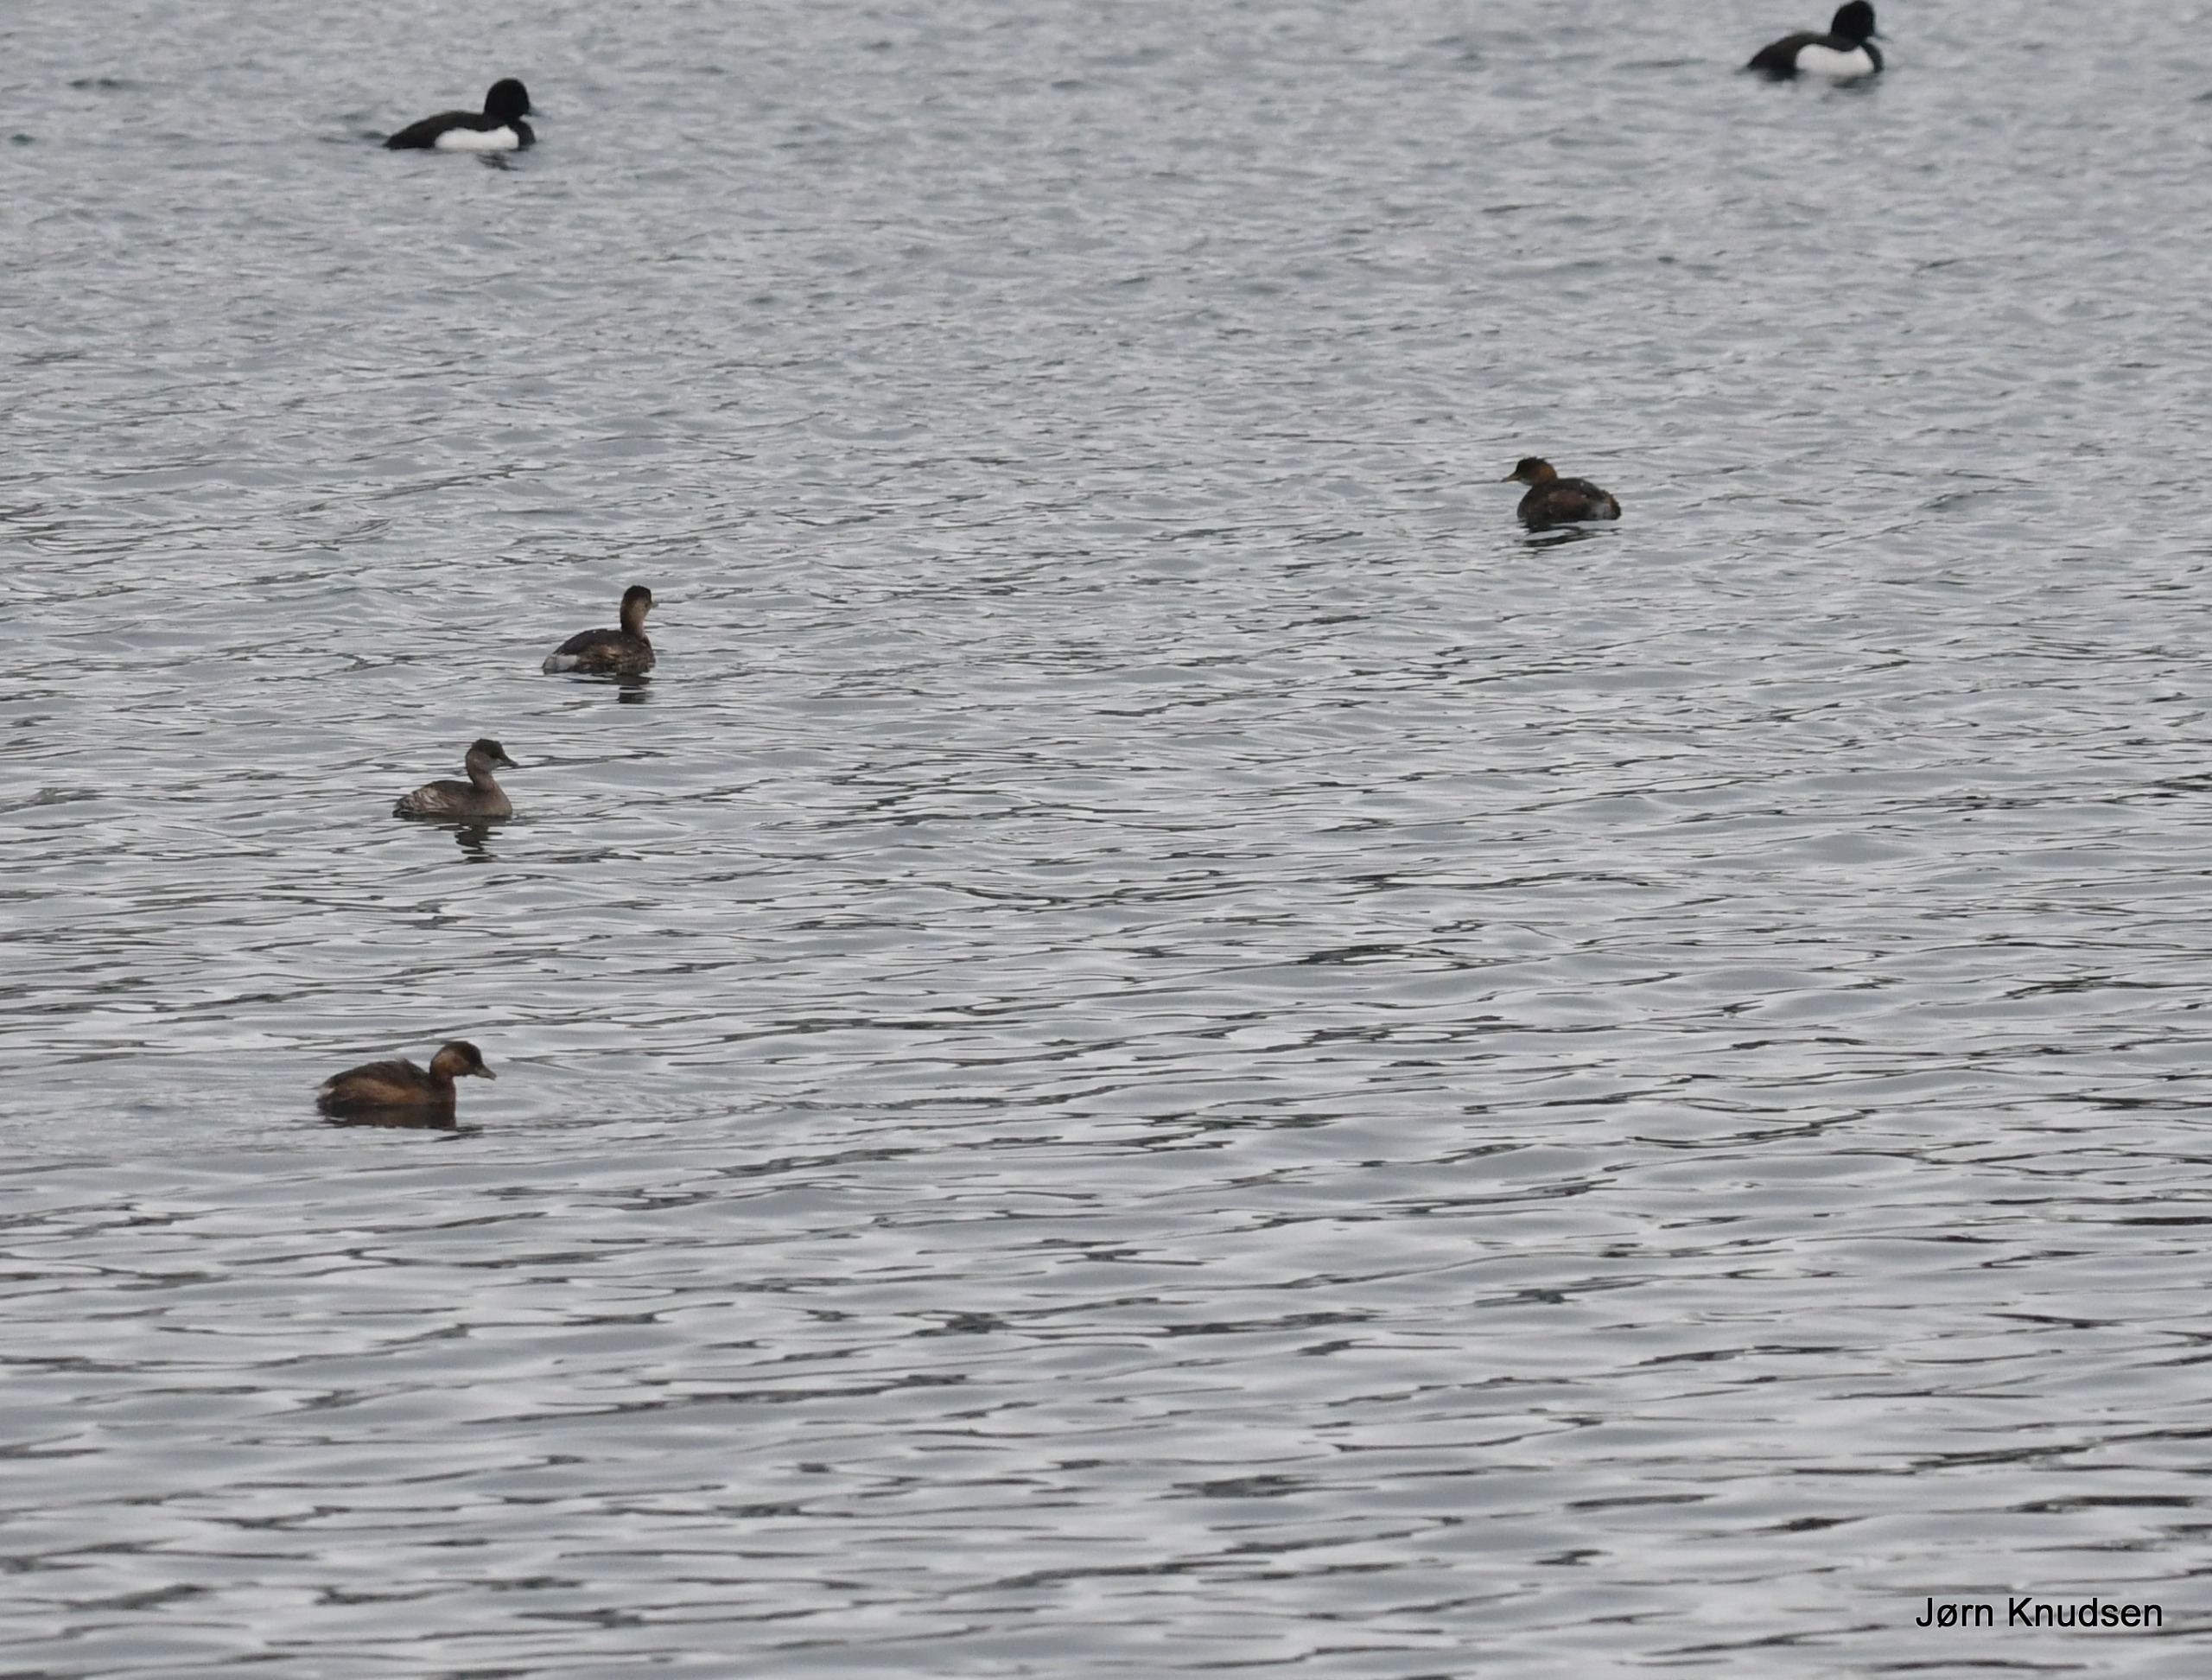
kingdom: Animalia
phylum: Chordata
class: Aves
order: Podicipediformes
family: Podicipedidae
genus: Tachybaptus
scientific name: Tachybaptus ruficollis
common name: Lille lappedykker
